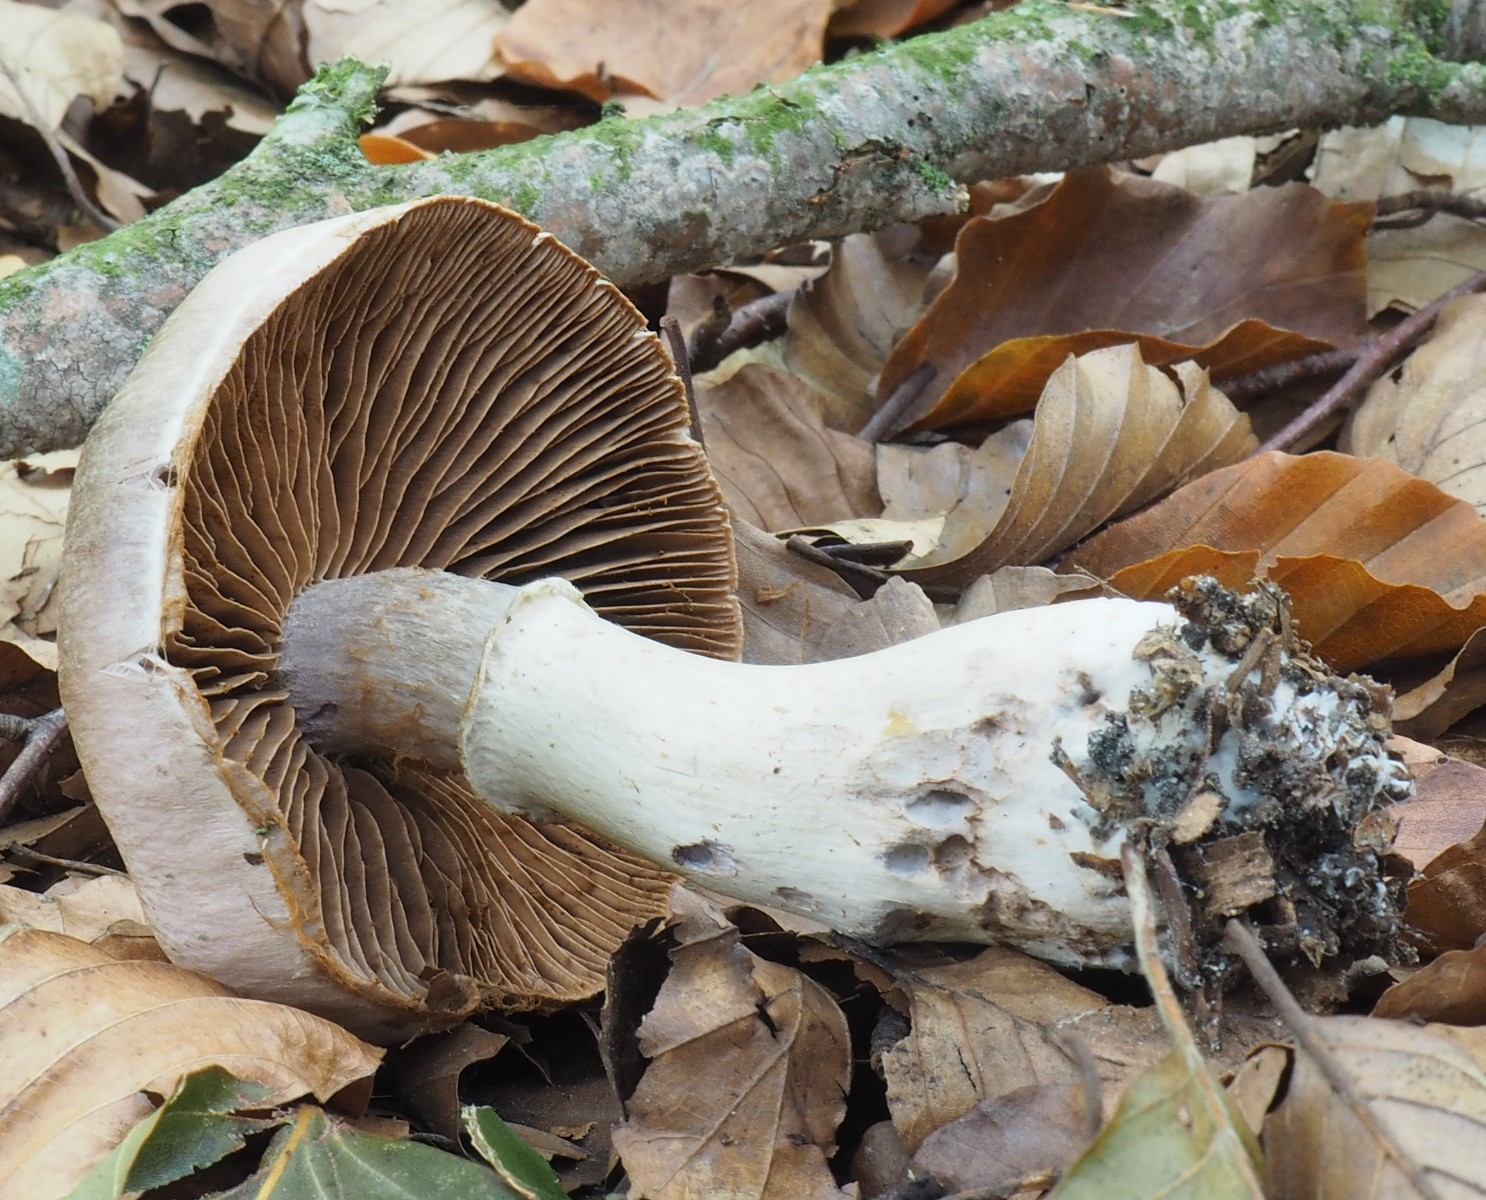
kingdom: Fungi
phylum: Basidiomycota
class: Agaricomycetes
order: Agaricales
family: Cortinariaceae
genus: Cortinarius
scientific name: Cortinarius torvus
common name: champignonagtig slørhat
